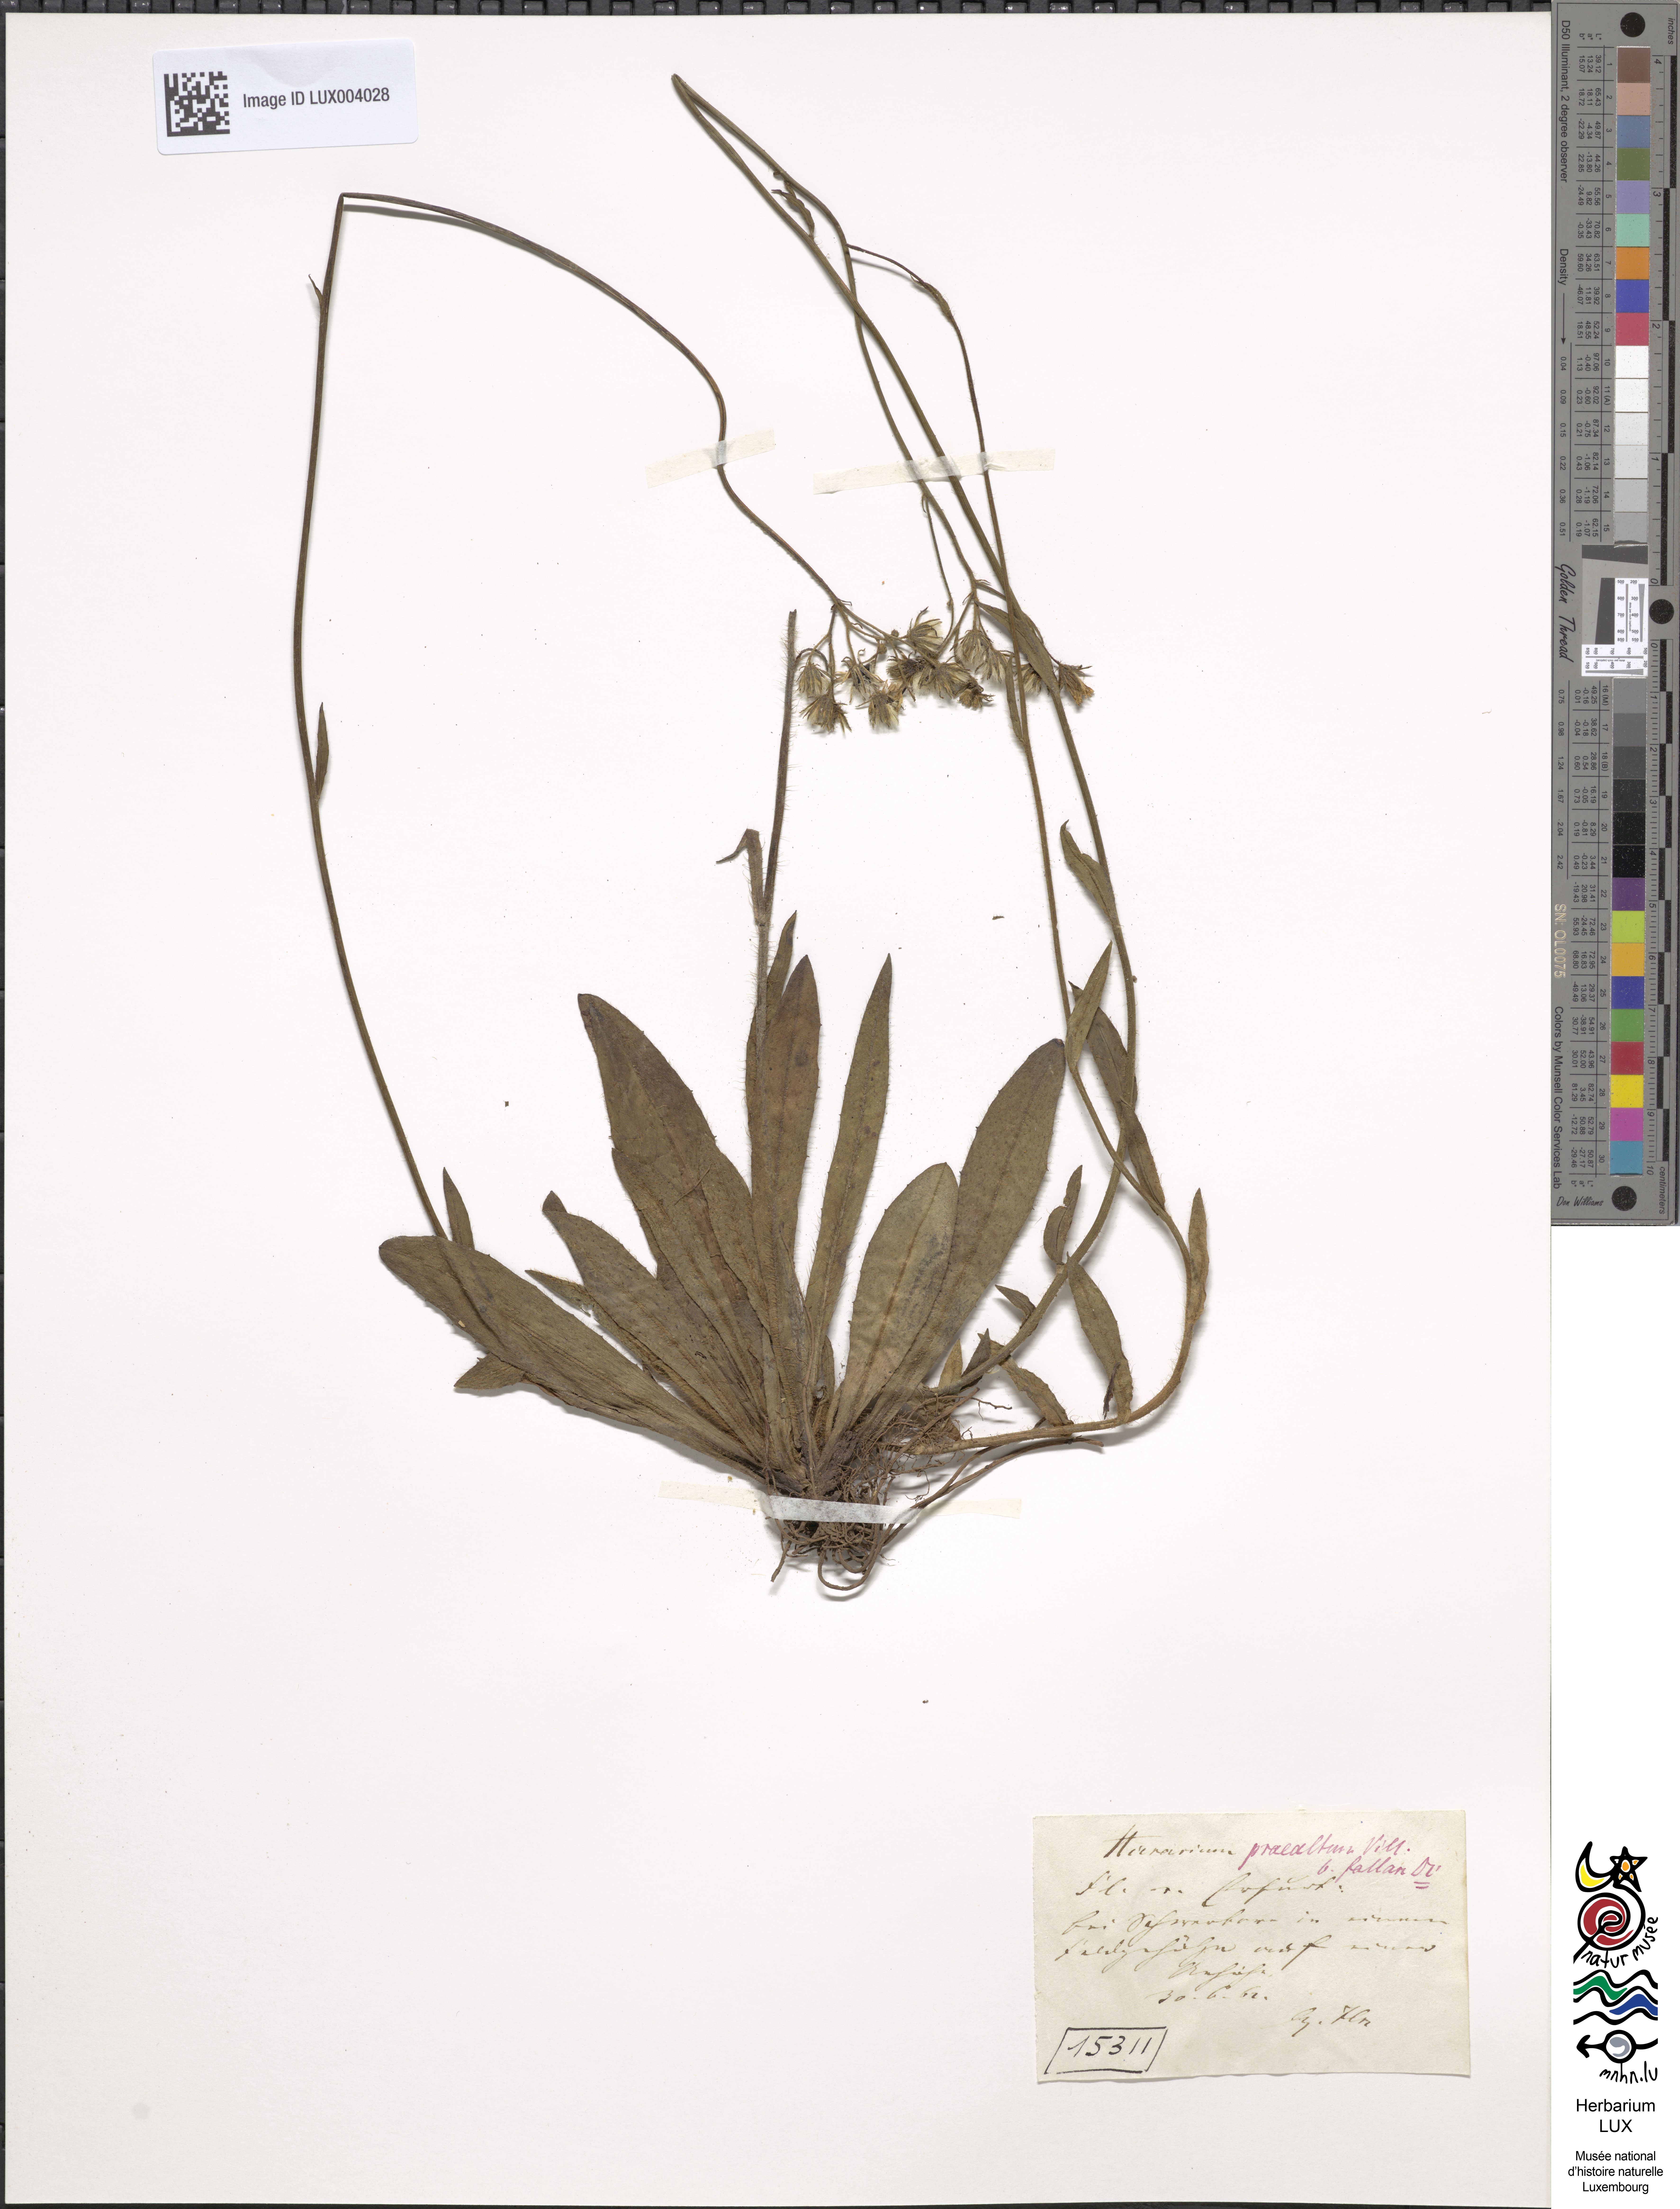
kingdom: Plantae
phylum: Tracheophyta
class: Magnoliopsida
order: Asterales
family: Asteraceae
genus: Hieracium
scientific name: Hieracium piloselloides
